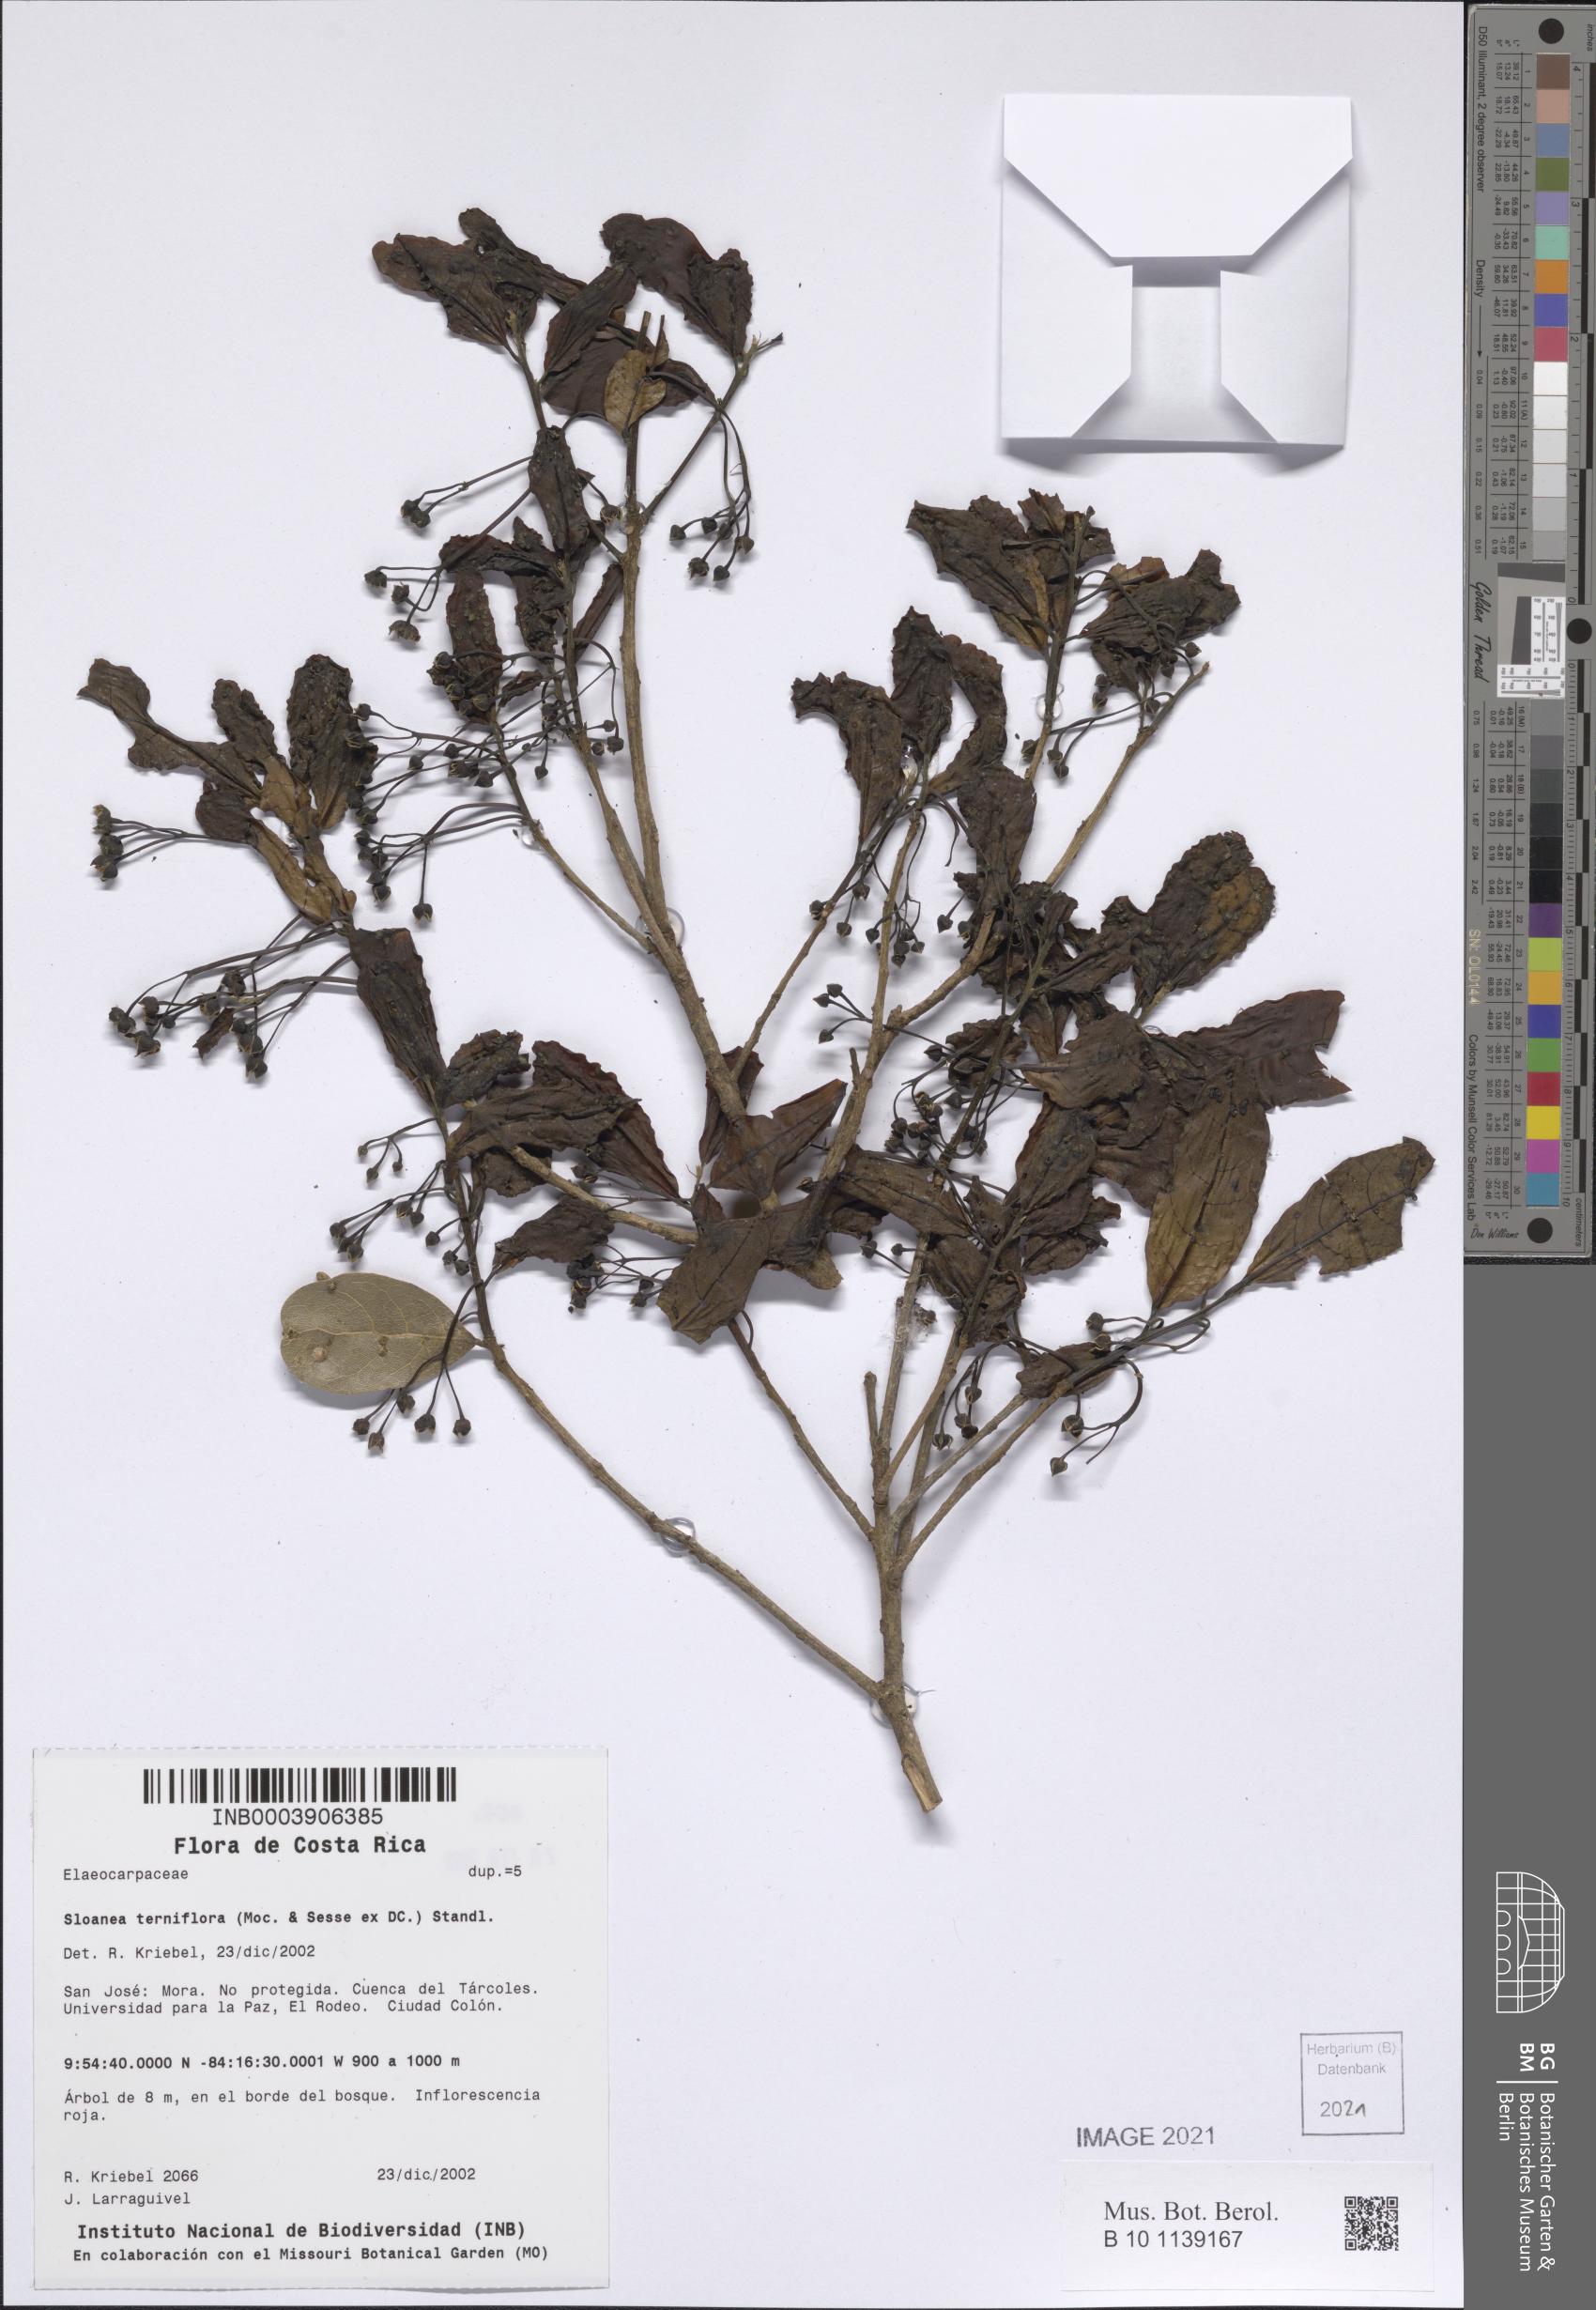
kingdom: Plantae
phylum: Tracheophyta
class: Magnoliopsida
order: Oxalidales
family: Elaeocarpaceae
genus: Sloanea
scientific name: Sloanea terniflora
